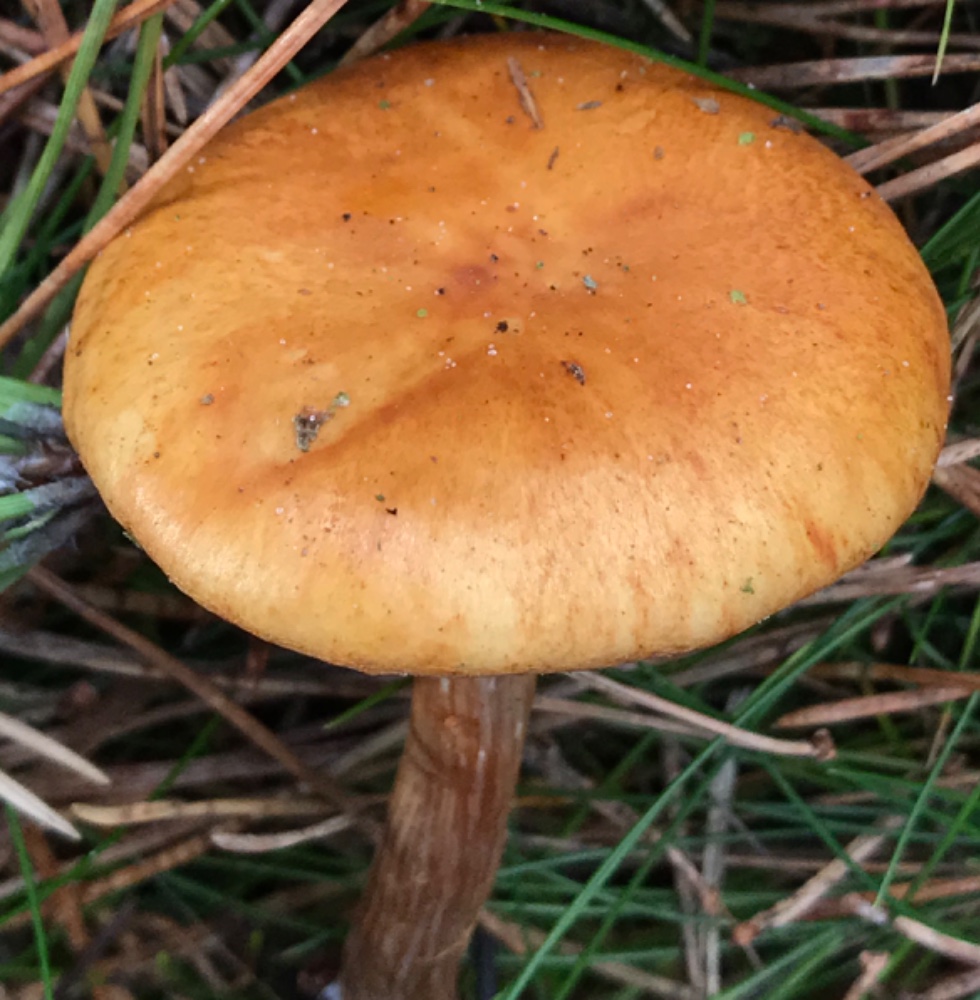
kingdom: Fungi
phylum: Basidiomycota
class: Agaricomycetes
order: Agaricales
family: Hymenogastraceae
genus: Gymnopilus
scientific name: Gymnopilus penetrans
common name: plettet flammehat
